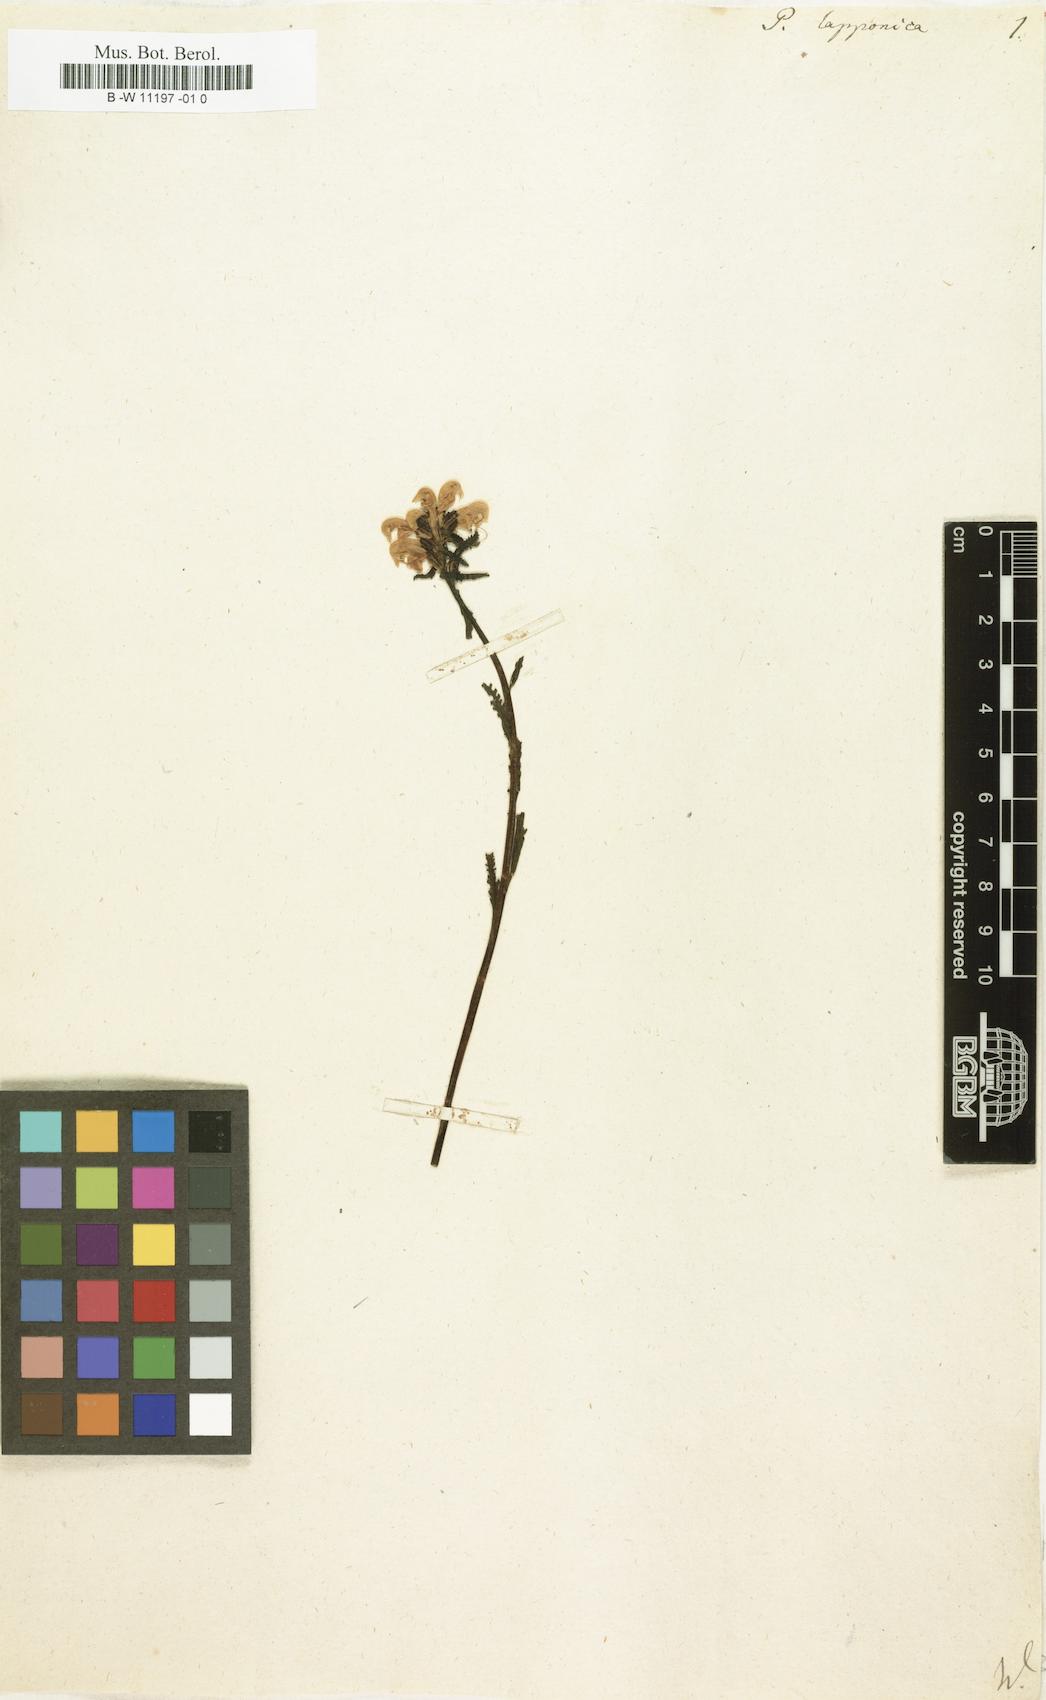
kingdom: Plantae
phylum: Tracheophyta
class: Magnoliopsida
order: Lamiales
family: Orobanchaceae
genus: Pedicularis
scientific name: Pedicularis lapponica
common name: Lapland lousewort
